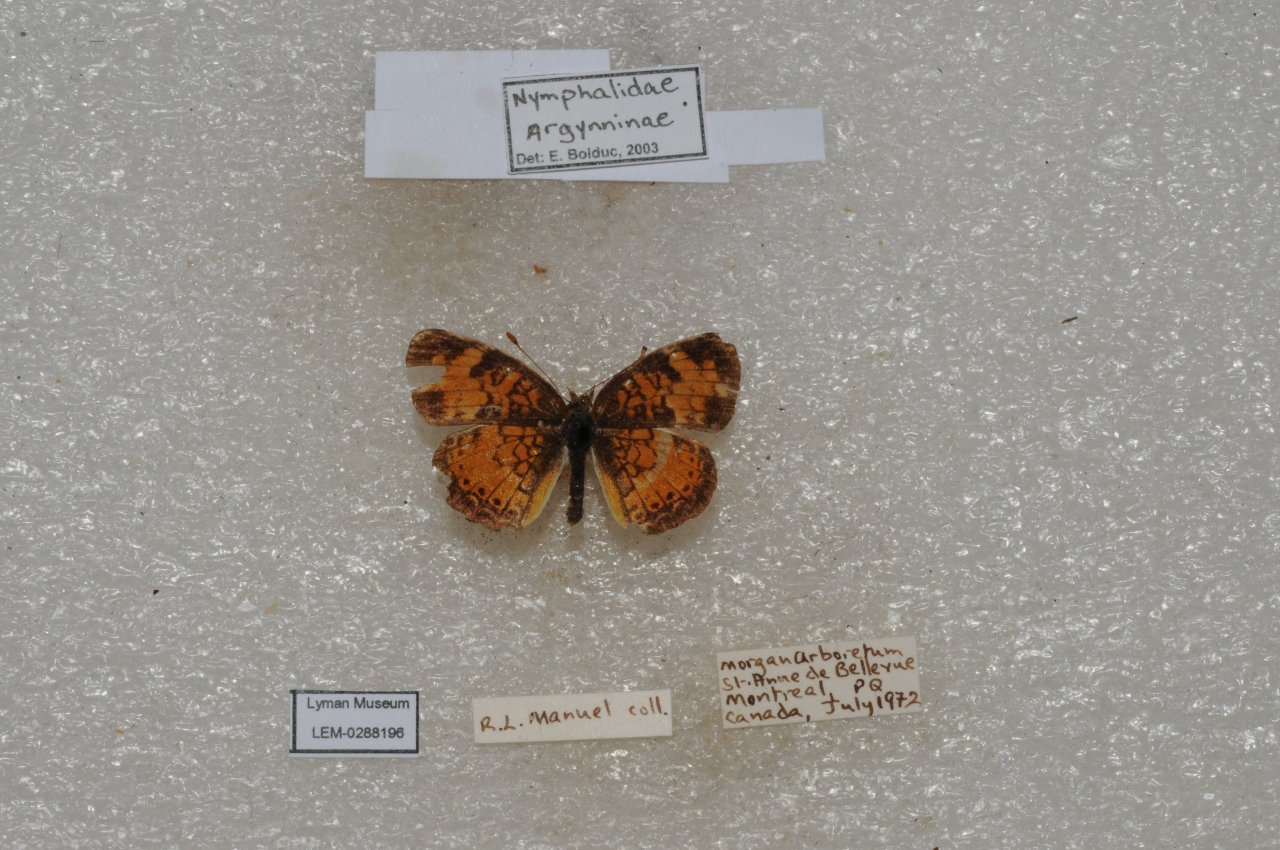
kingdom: Animalia
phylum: Arthropoda
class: Insecta
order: Lepidoptera
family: Nymphalidae
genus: Phyciodes
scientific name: Phyciodes tharos
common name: Northern Crescent
